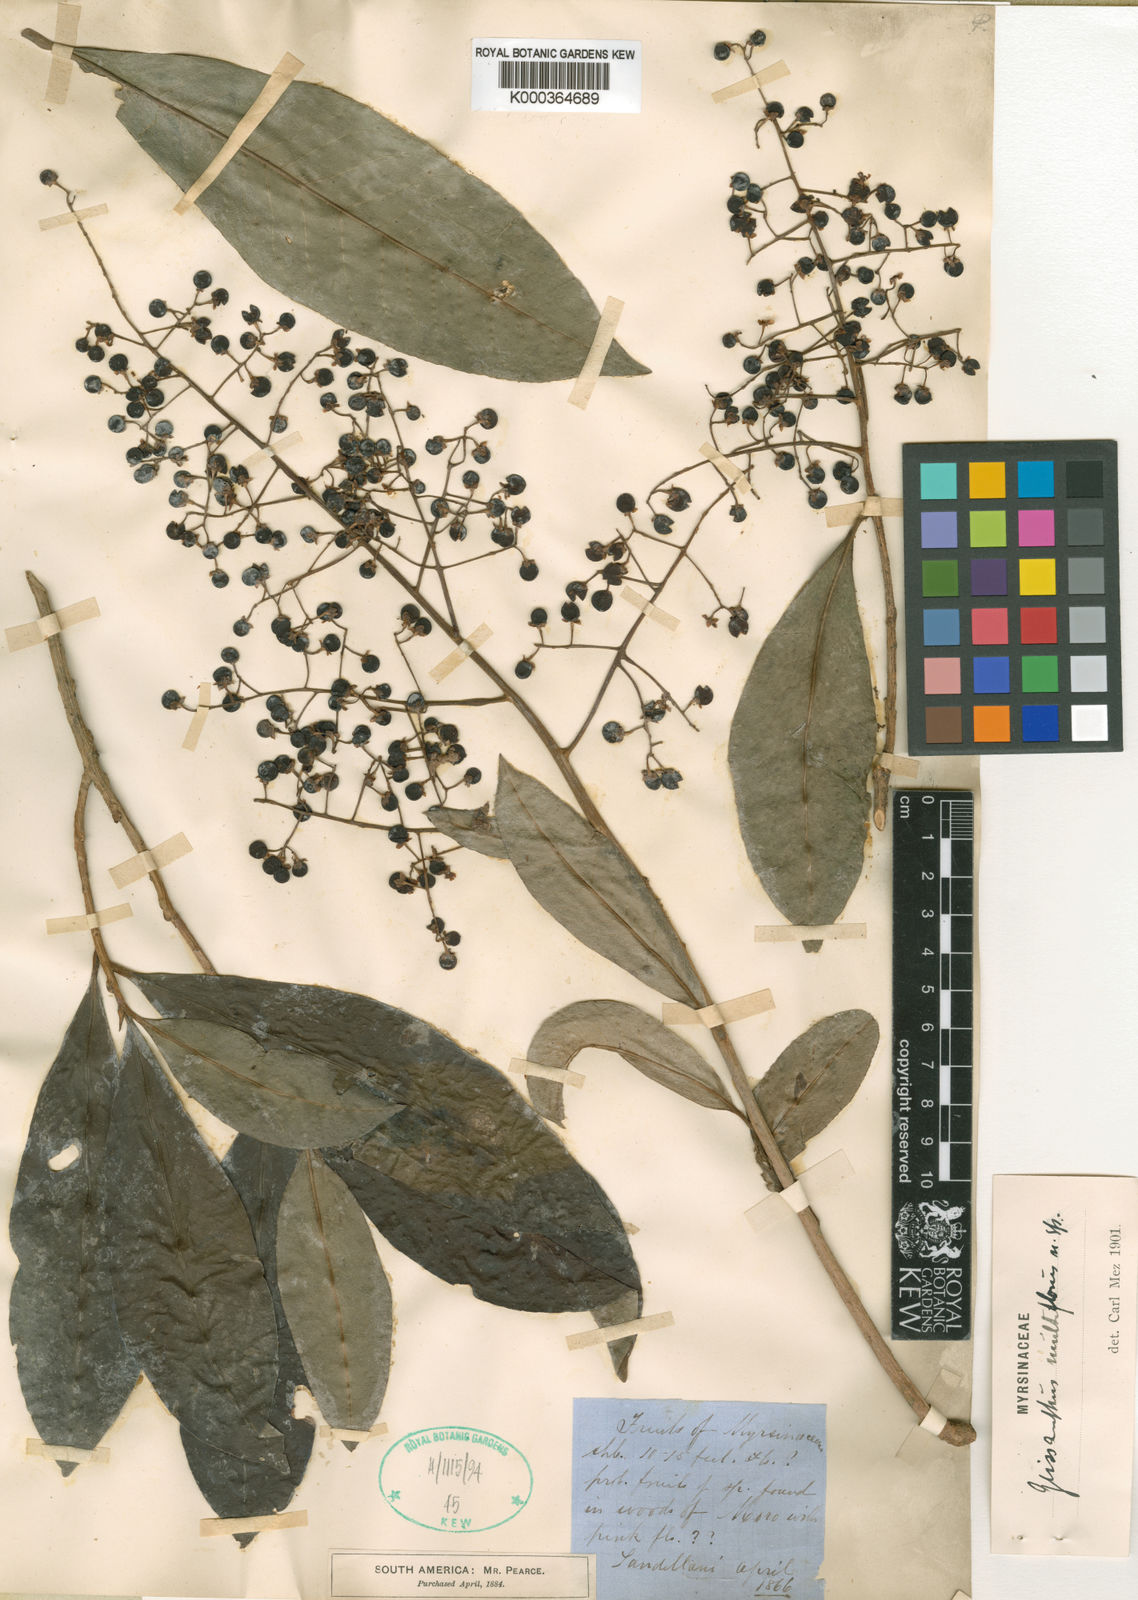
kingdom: Plantae
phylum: Tracheophyta
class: Magnoliopsida
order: Ericales
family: Primulaceae
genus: Geissanthus
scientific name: Geissanthus multiflorus
